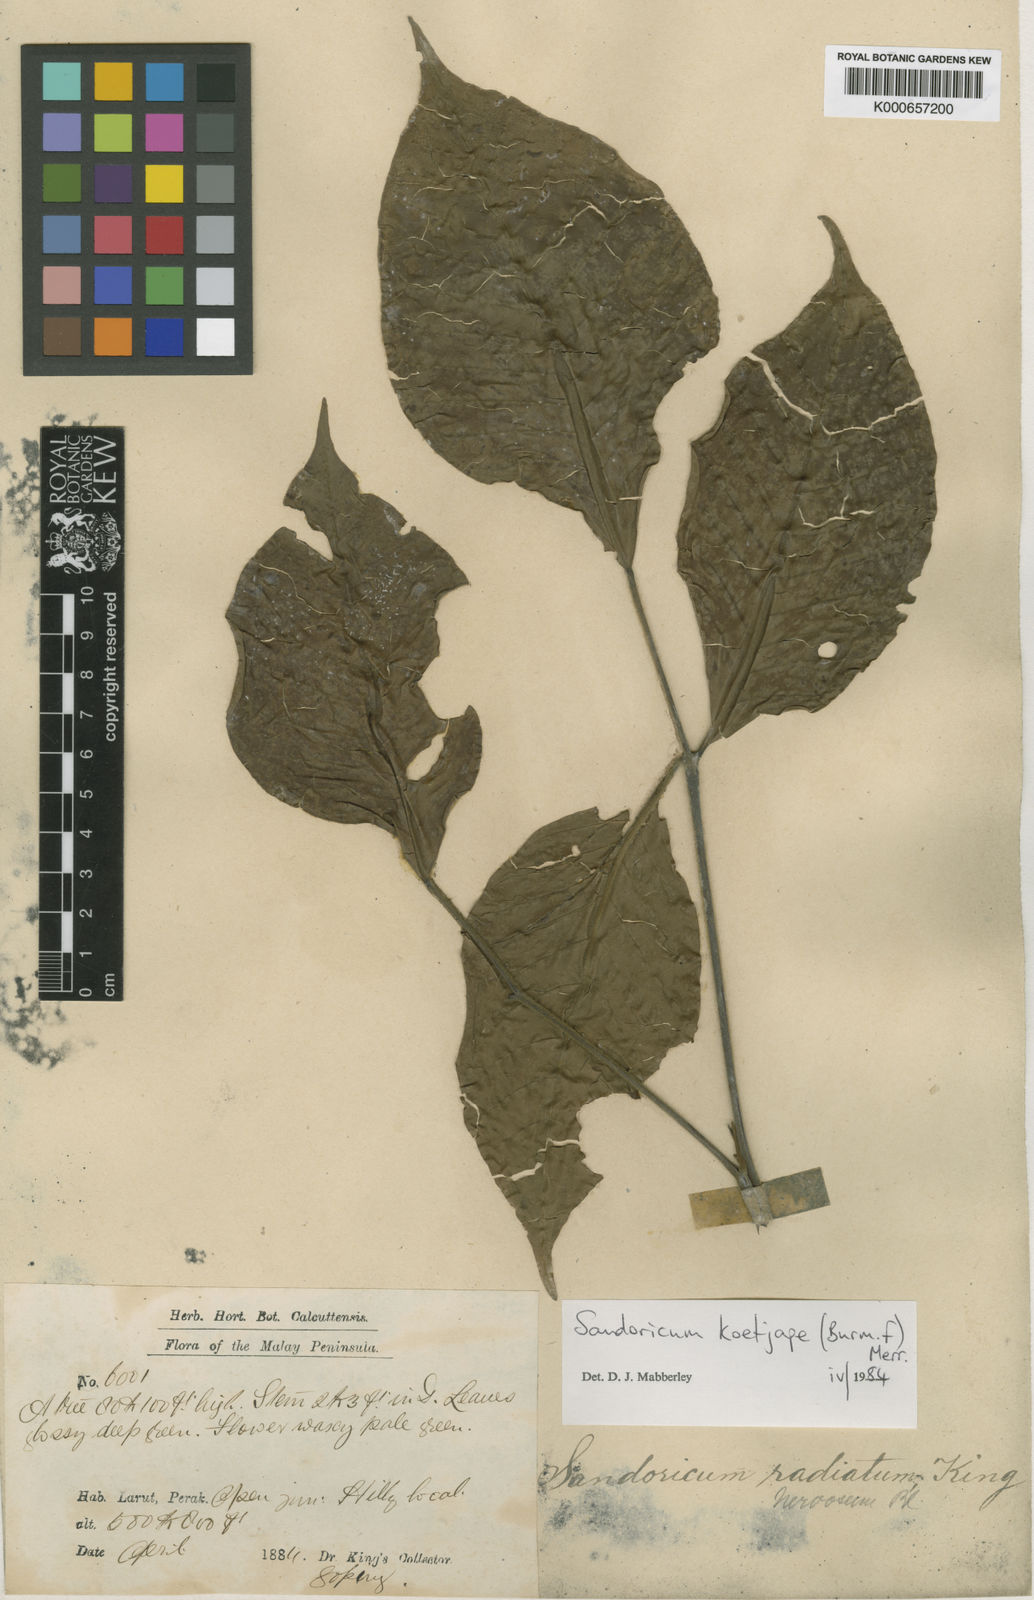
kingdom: Plantae
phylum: Tracheophyta
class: Magnoliopsida
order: Sapindales
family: Meliaceae
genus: Sandoricum
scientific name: Sandoricum koetjape
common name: Santol
